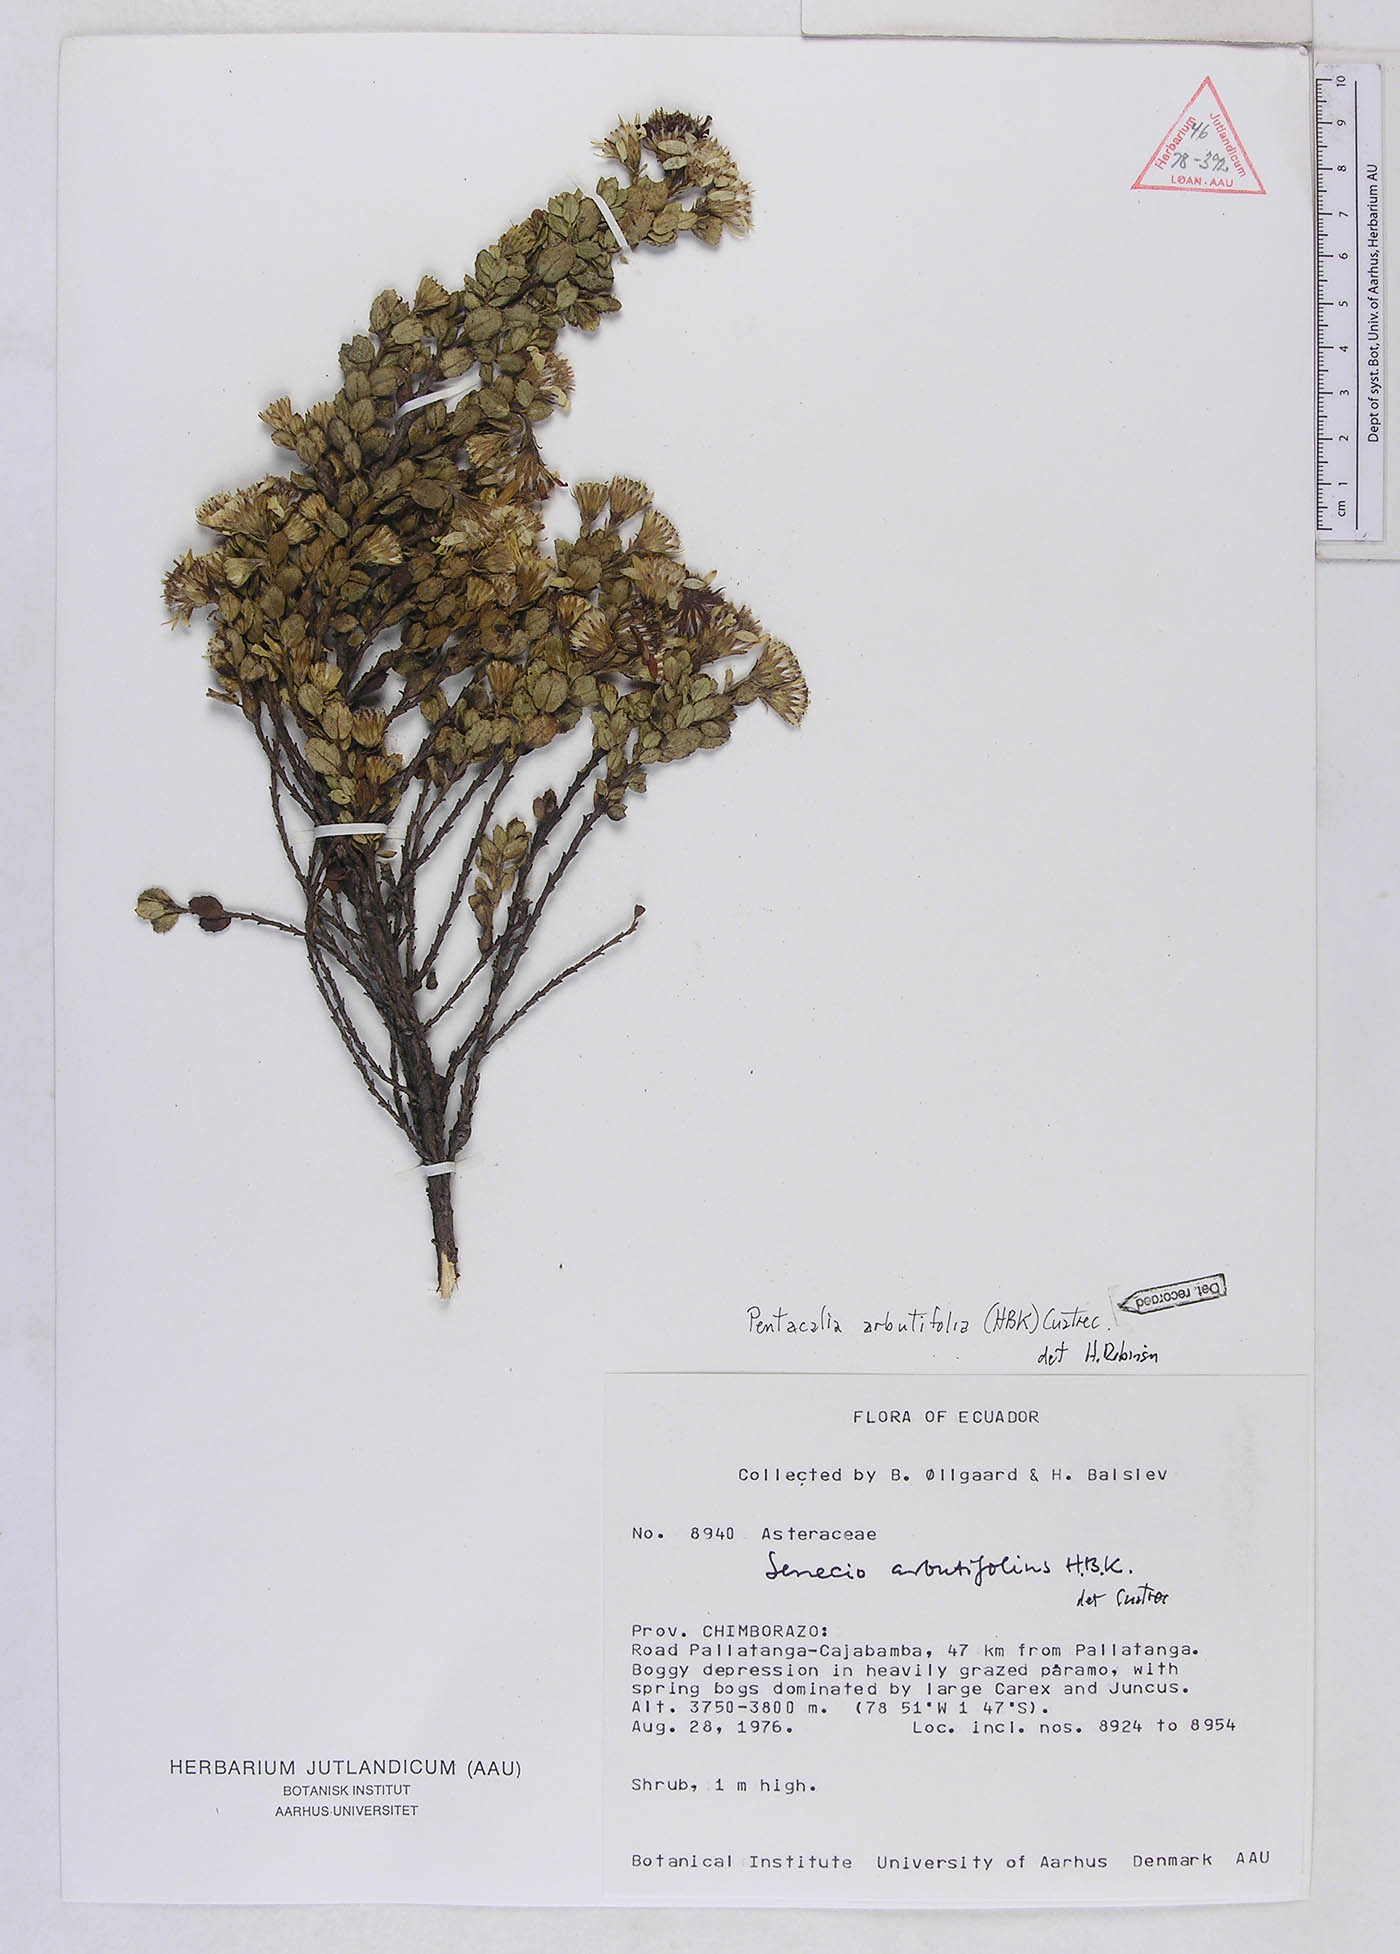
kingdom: Plantae
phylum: Tracheophyta
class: Magnoliopsida
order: Asterales
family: Asteraceae
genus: Monticalia
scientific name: Monticalia arbutifolia
